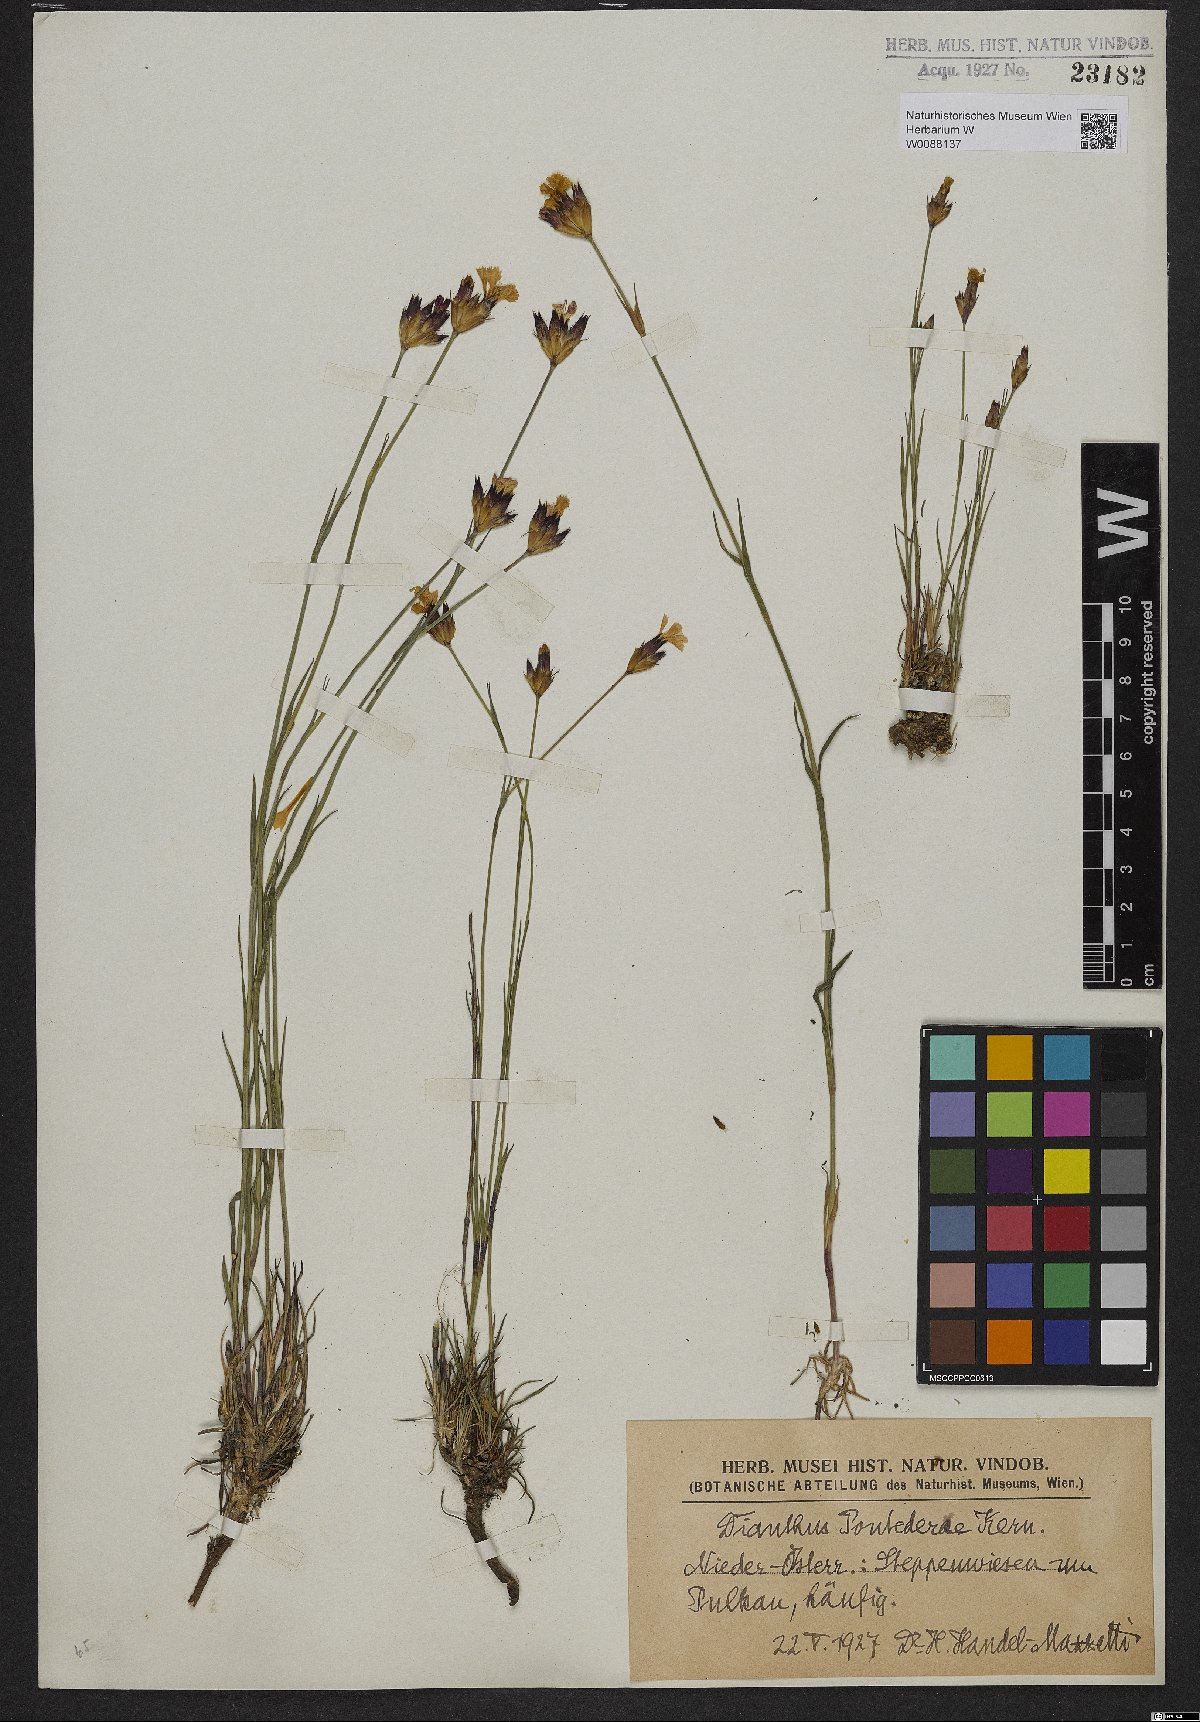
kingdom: Plantae
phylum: Tracheophyta
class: Magnoliopsida
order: Caryophyllales
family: Caryophyllaceae
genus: Dianthus
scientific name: Dianthus pontederae
